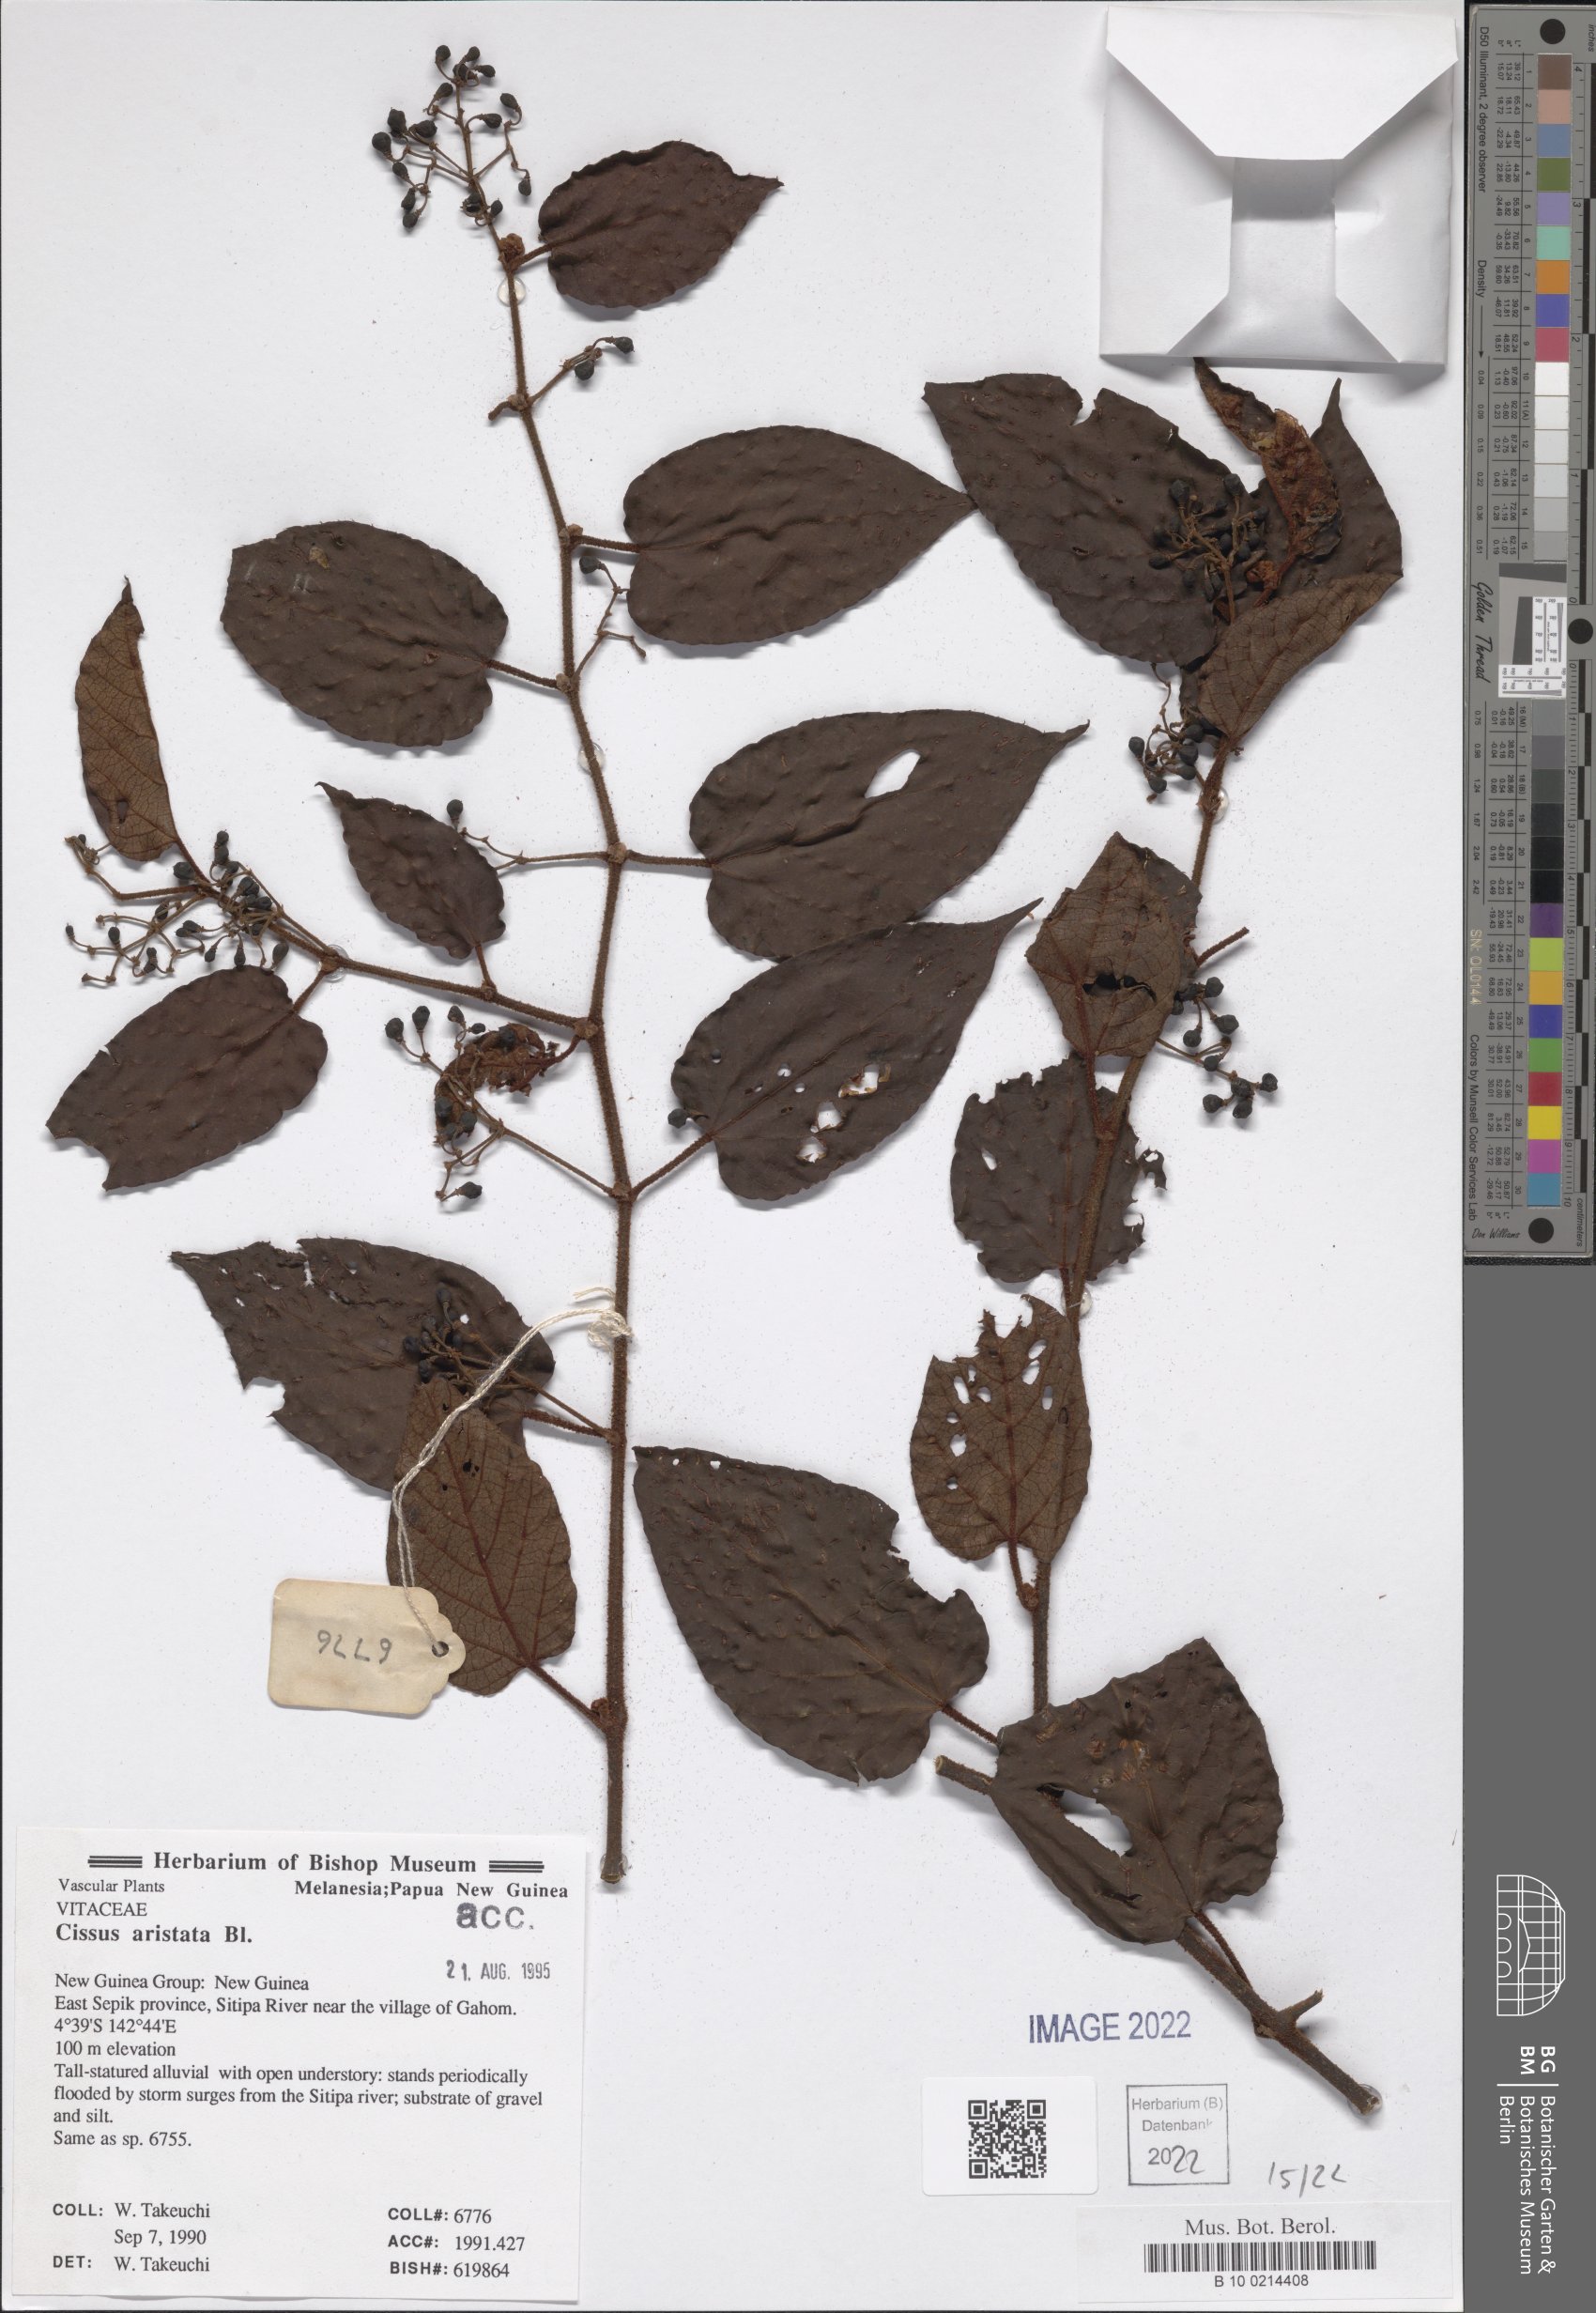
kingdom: Plantae
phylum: Tracheophyta
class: Magnoliopsida
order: Vitales
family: Vitaceae
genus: Cissus
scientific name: Cissus aristata
